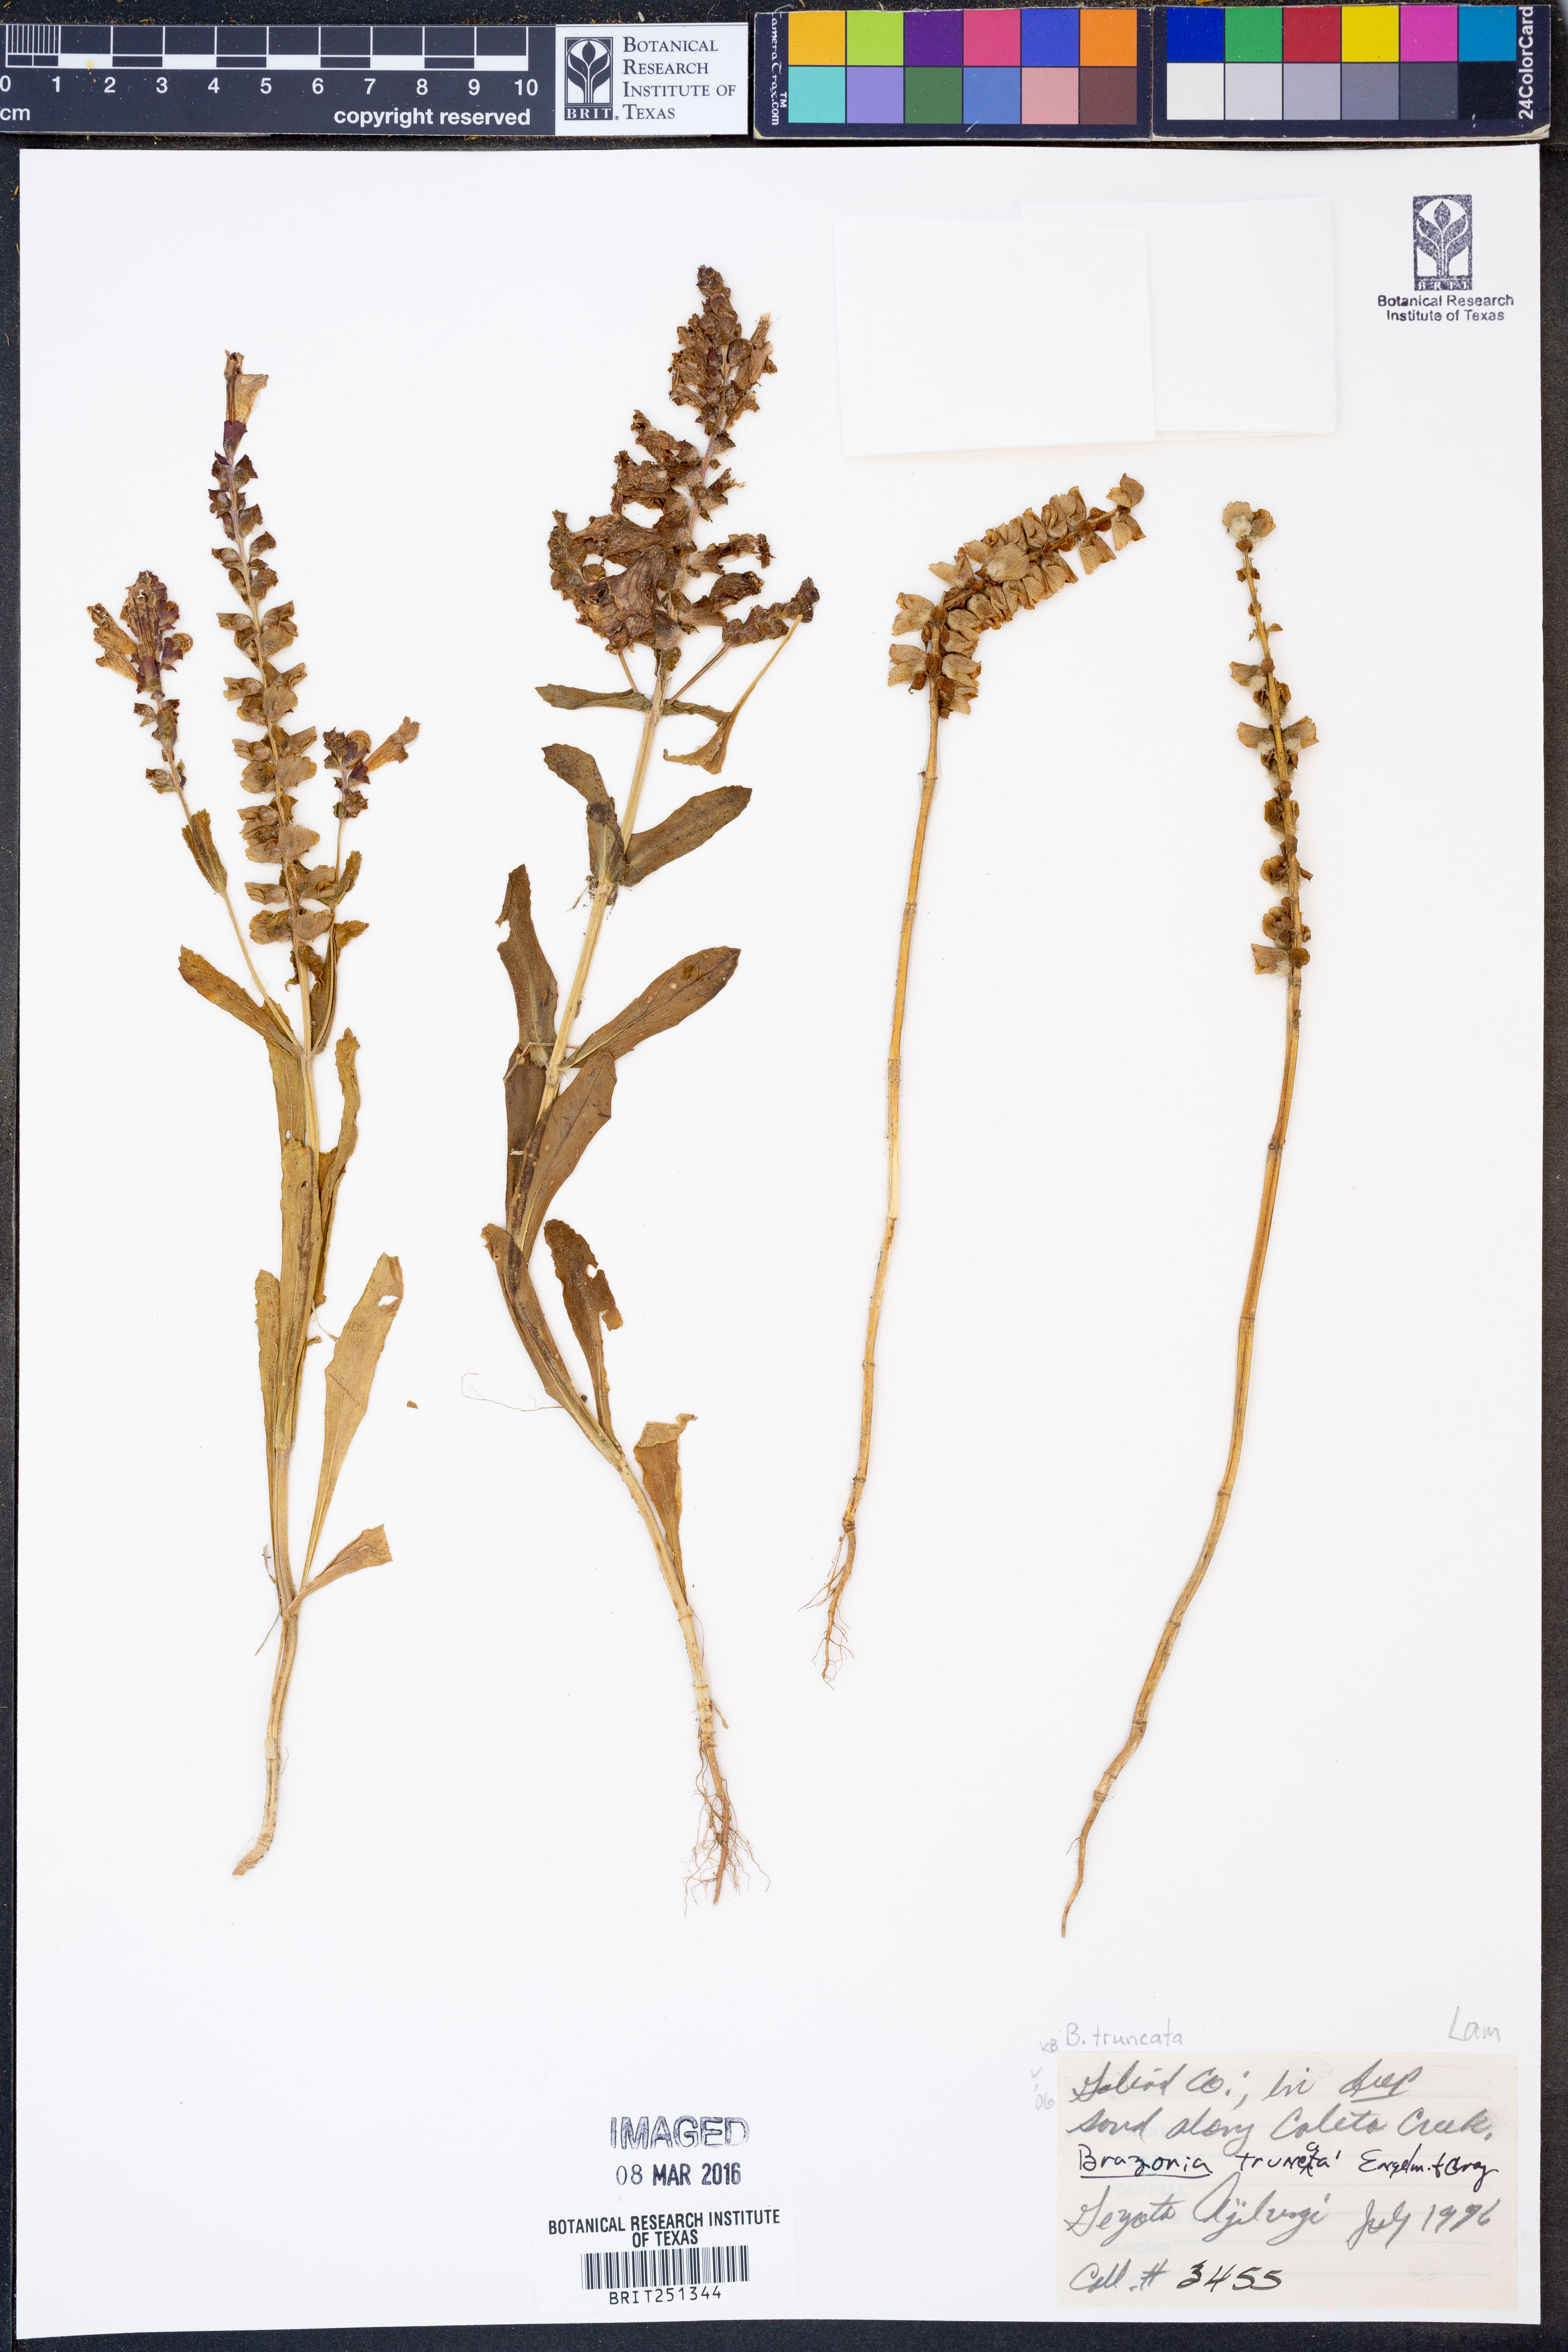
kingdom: Plantae
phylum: Tracheophyta
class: Magnoliopsida
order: Lamiales
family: Lamiaceae
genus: Brazoria
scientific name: Brazoria truncata
